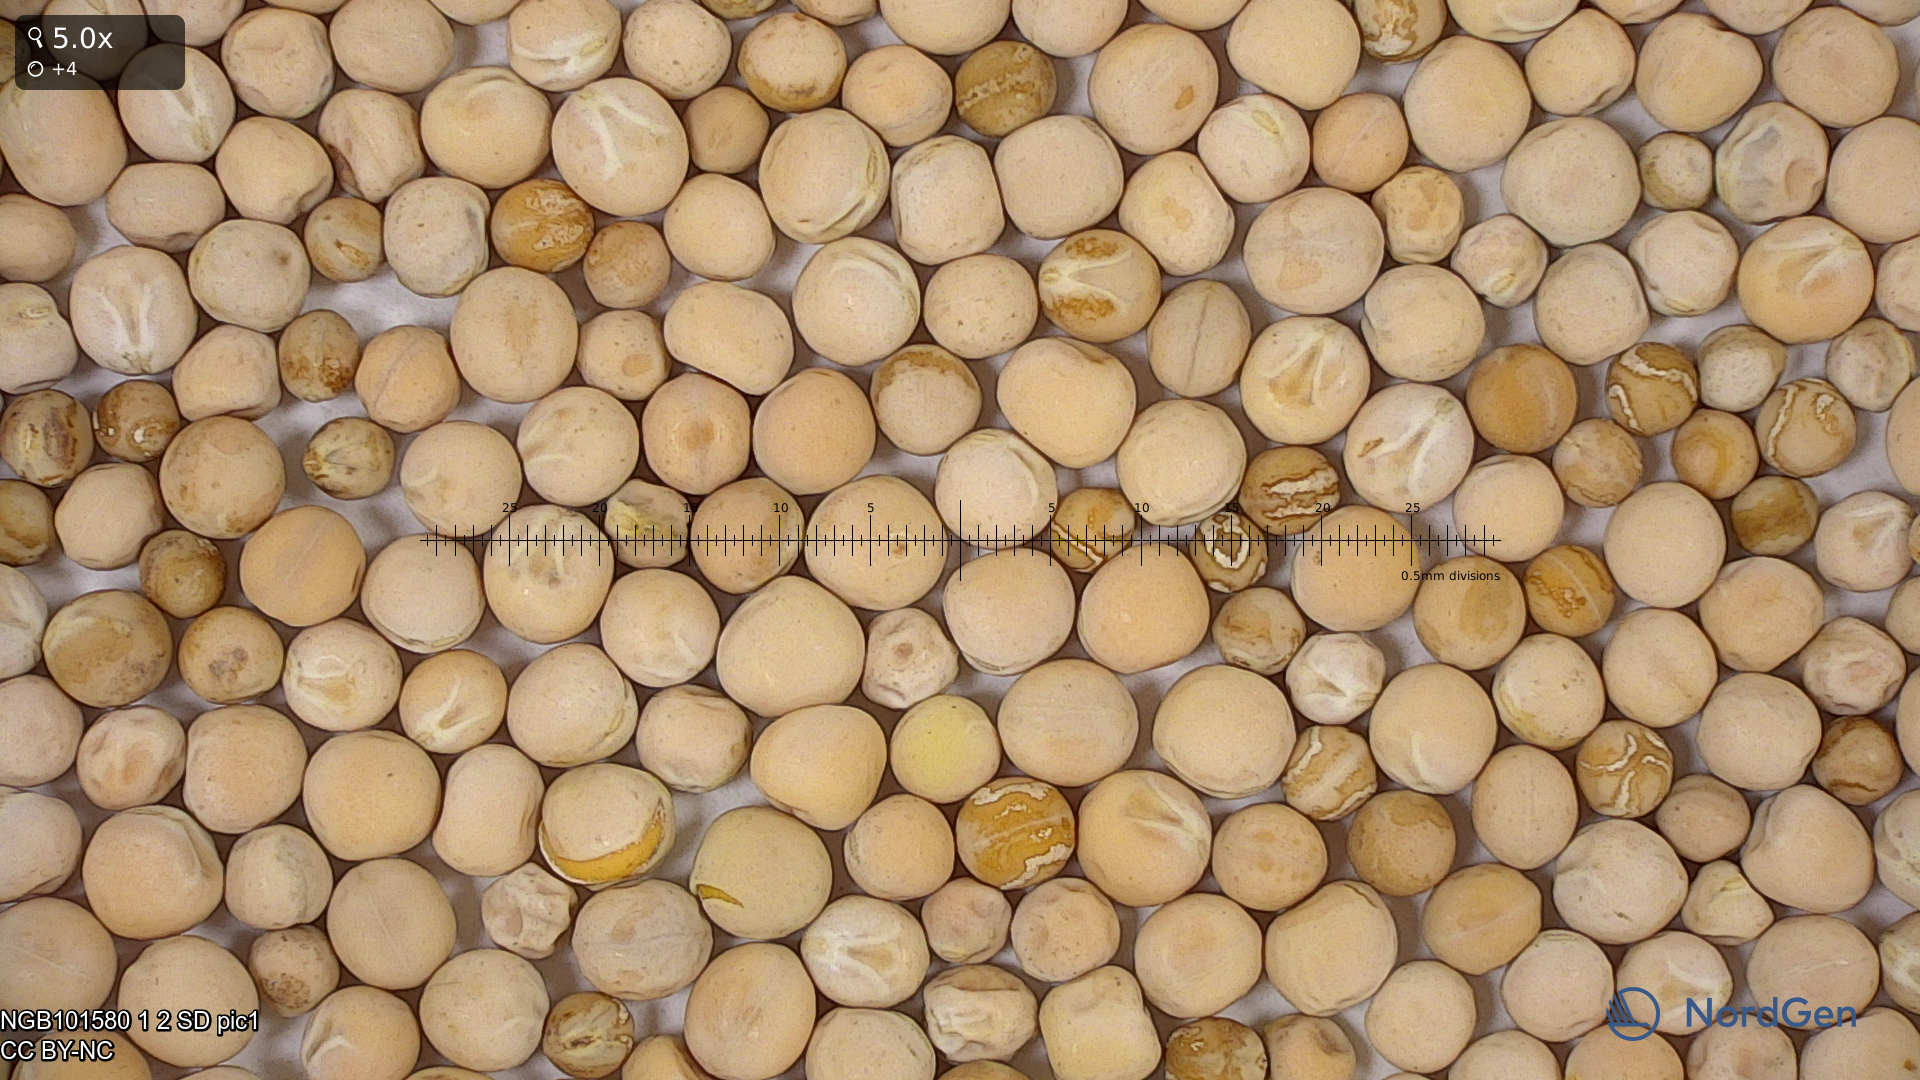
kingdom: Plantae
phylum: Tracheophyta
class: Magnoliopsida
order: Fabales
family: Fabaceae
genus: Lathyrus
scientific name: Lathyrus oleraceus
